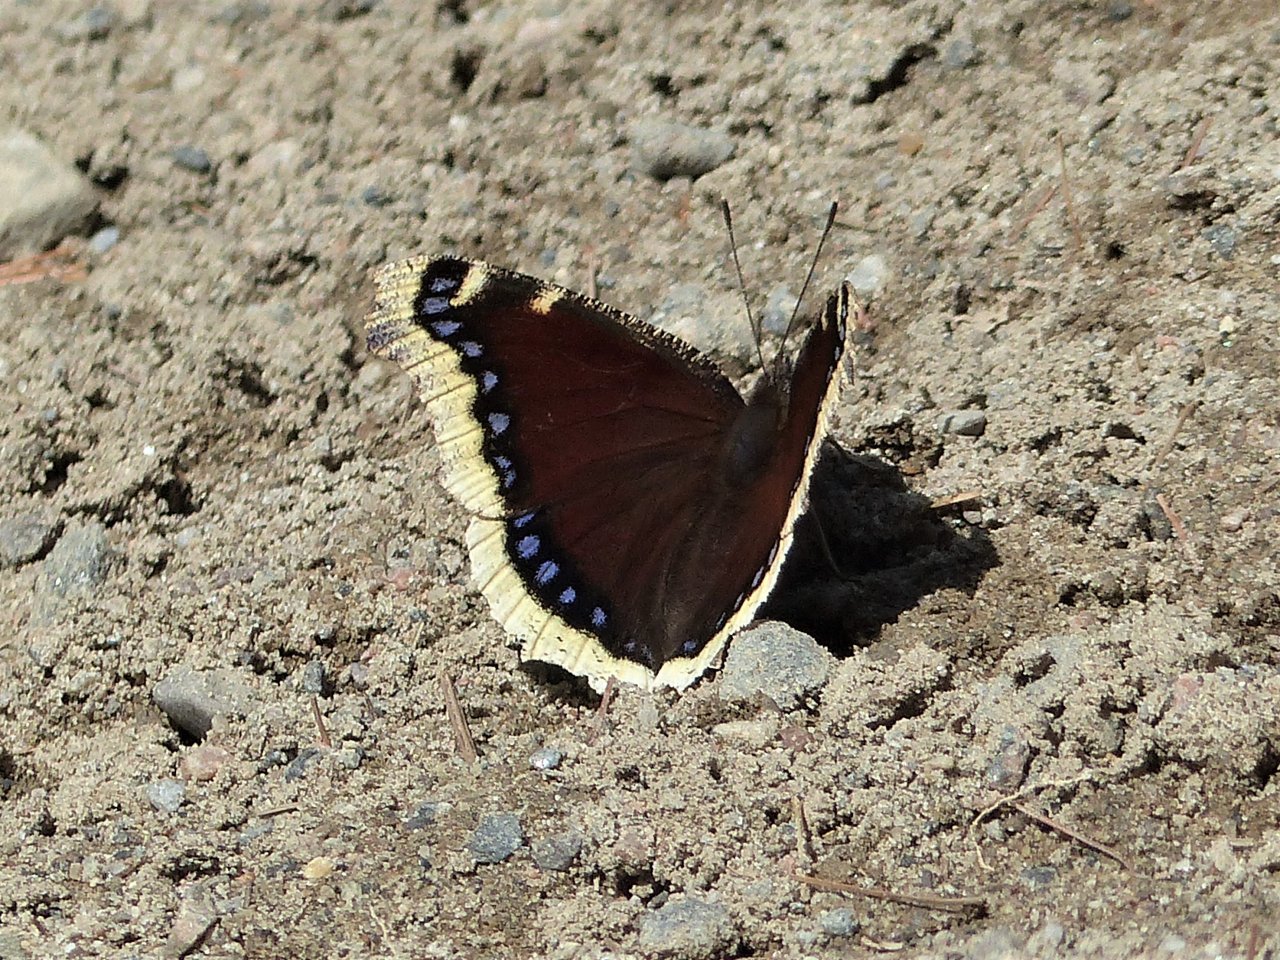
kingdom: Animalia
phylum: Arthropoda
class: Insecta
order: Lepidoptera
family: Nymphalidae
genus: Nymphalis
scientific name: Nymphalis antiopa
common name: Mourning Cloak
